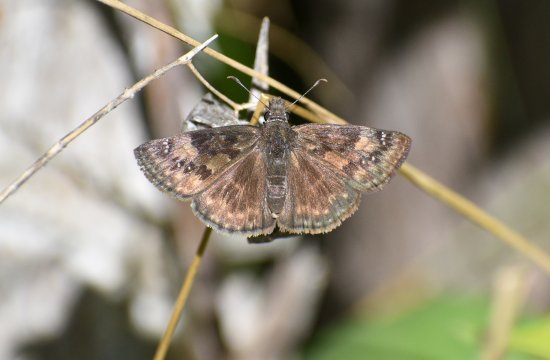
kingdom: Animalia
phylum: Arthropoda
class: Insecta
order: Lepidoptera
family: Hesperiidae
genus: Gesta
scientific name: Gesta
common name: Wild Indigo Duskywing
